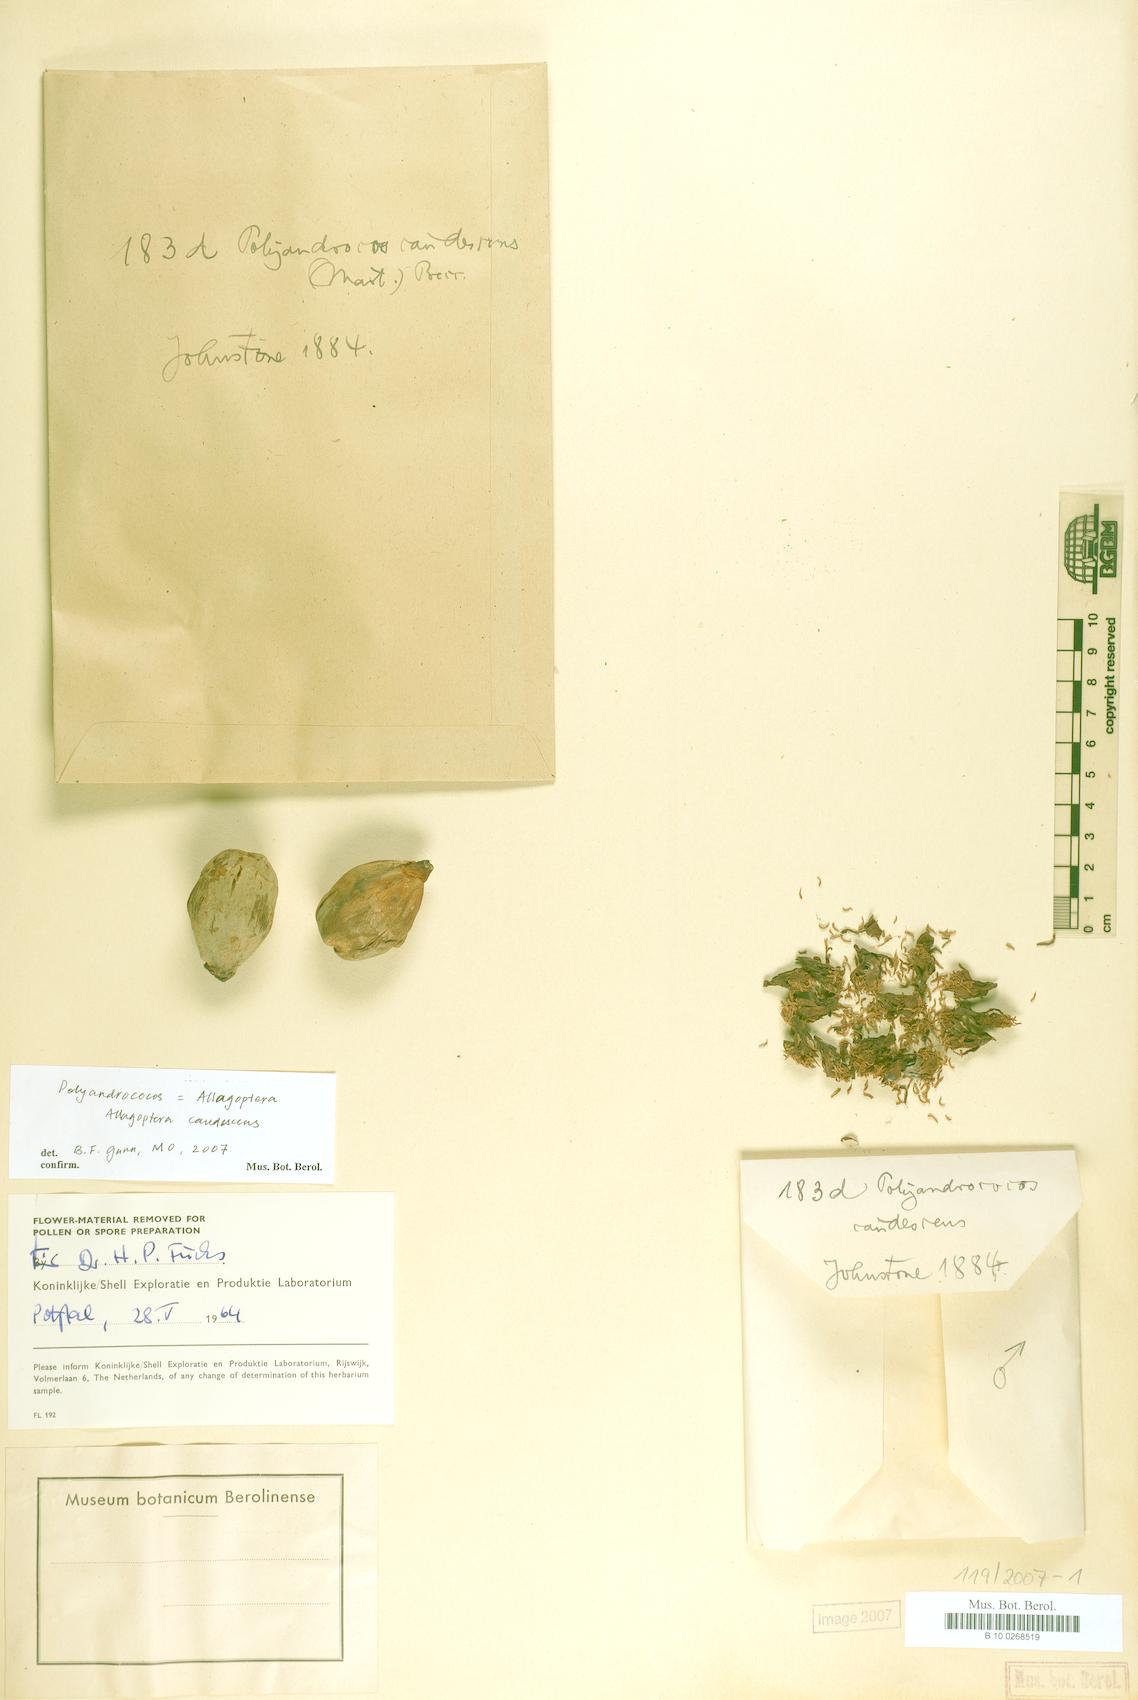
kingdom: Plantae
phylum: Tracheophyta
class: Liliopsida
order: Arecales
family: Arecaceae
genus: Allagoptera
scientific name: Allagoptera caudescens
